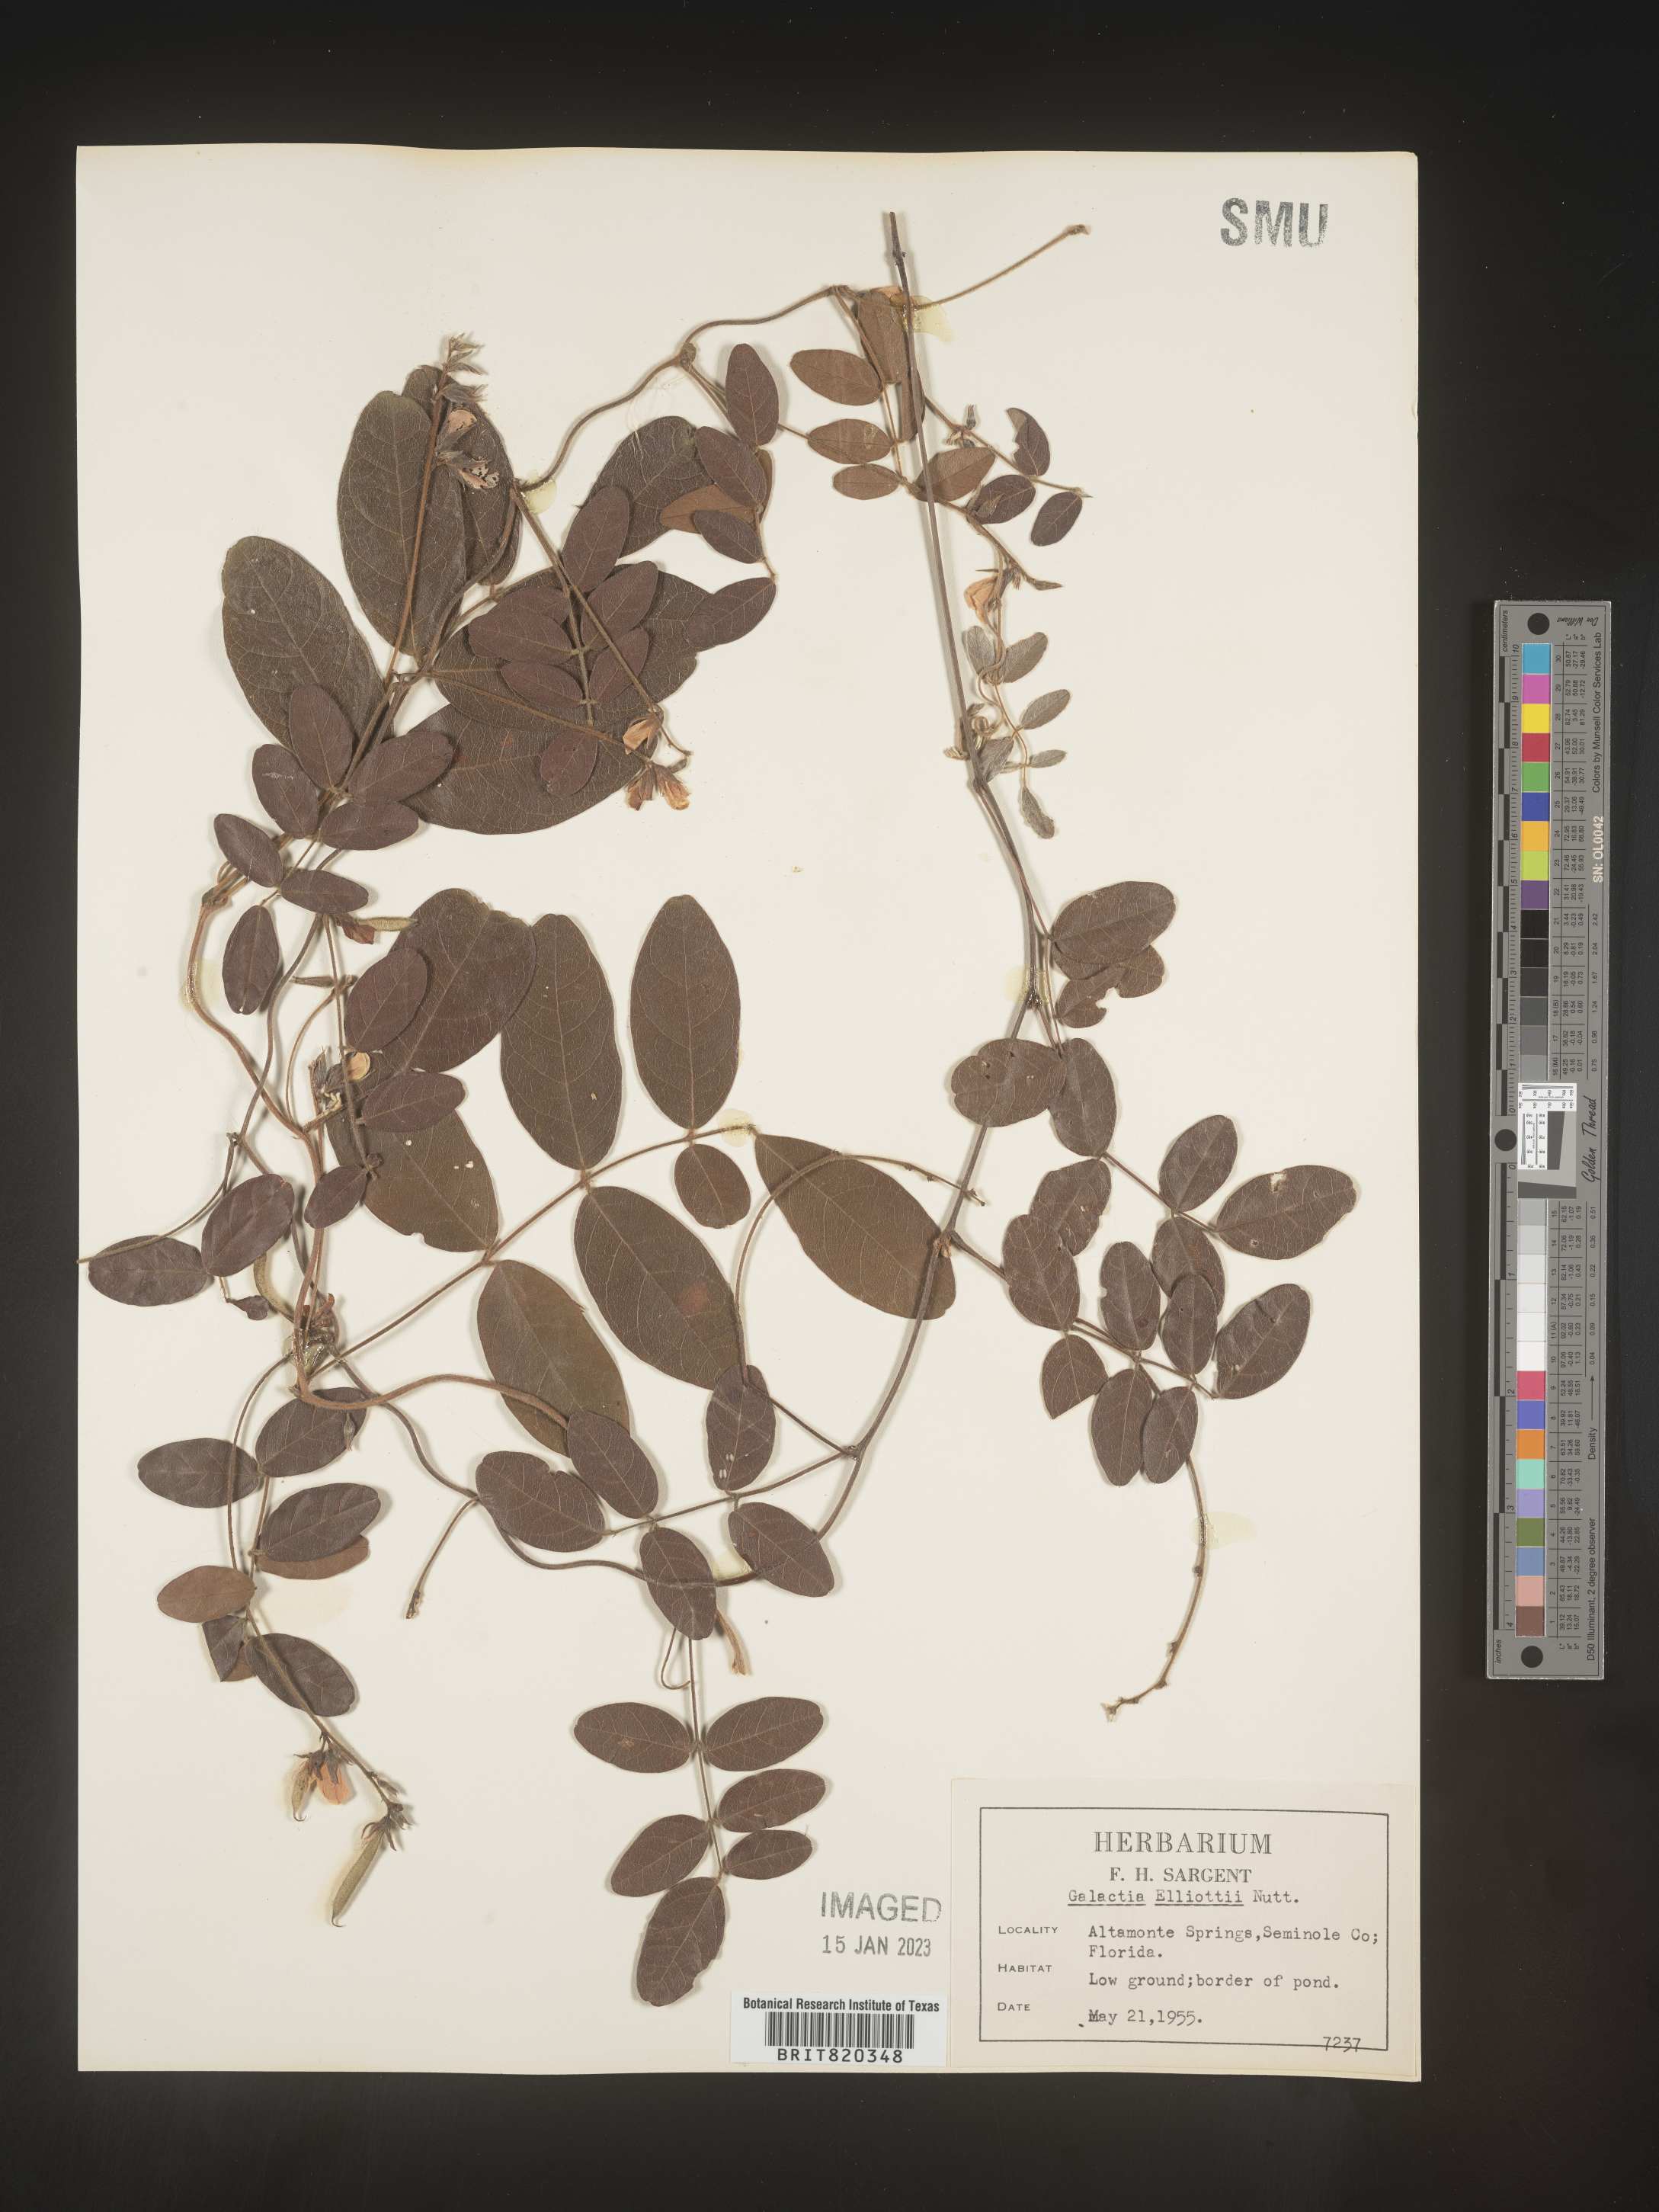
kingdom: Plantae
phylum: Tracheophyta
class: Magnoliopsida
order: Fabales
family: Fabaceae
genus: Galactia
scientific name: Galactia elliottii
